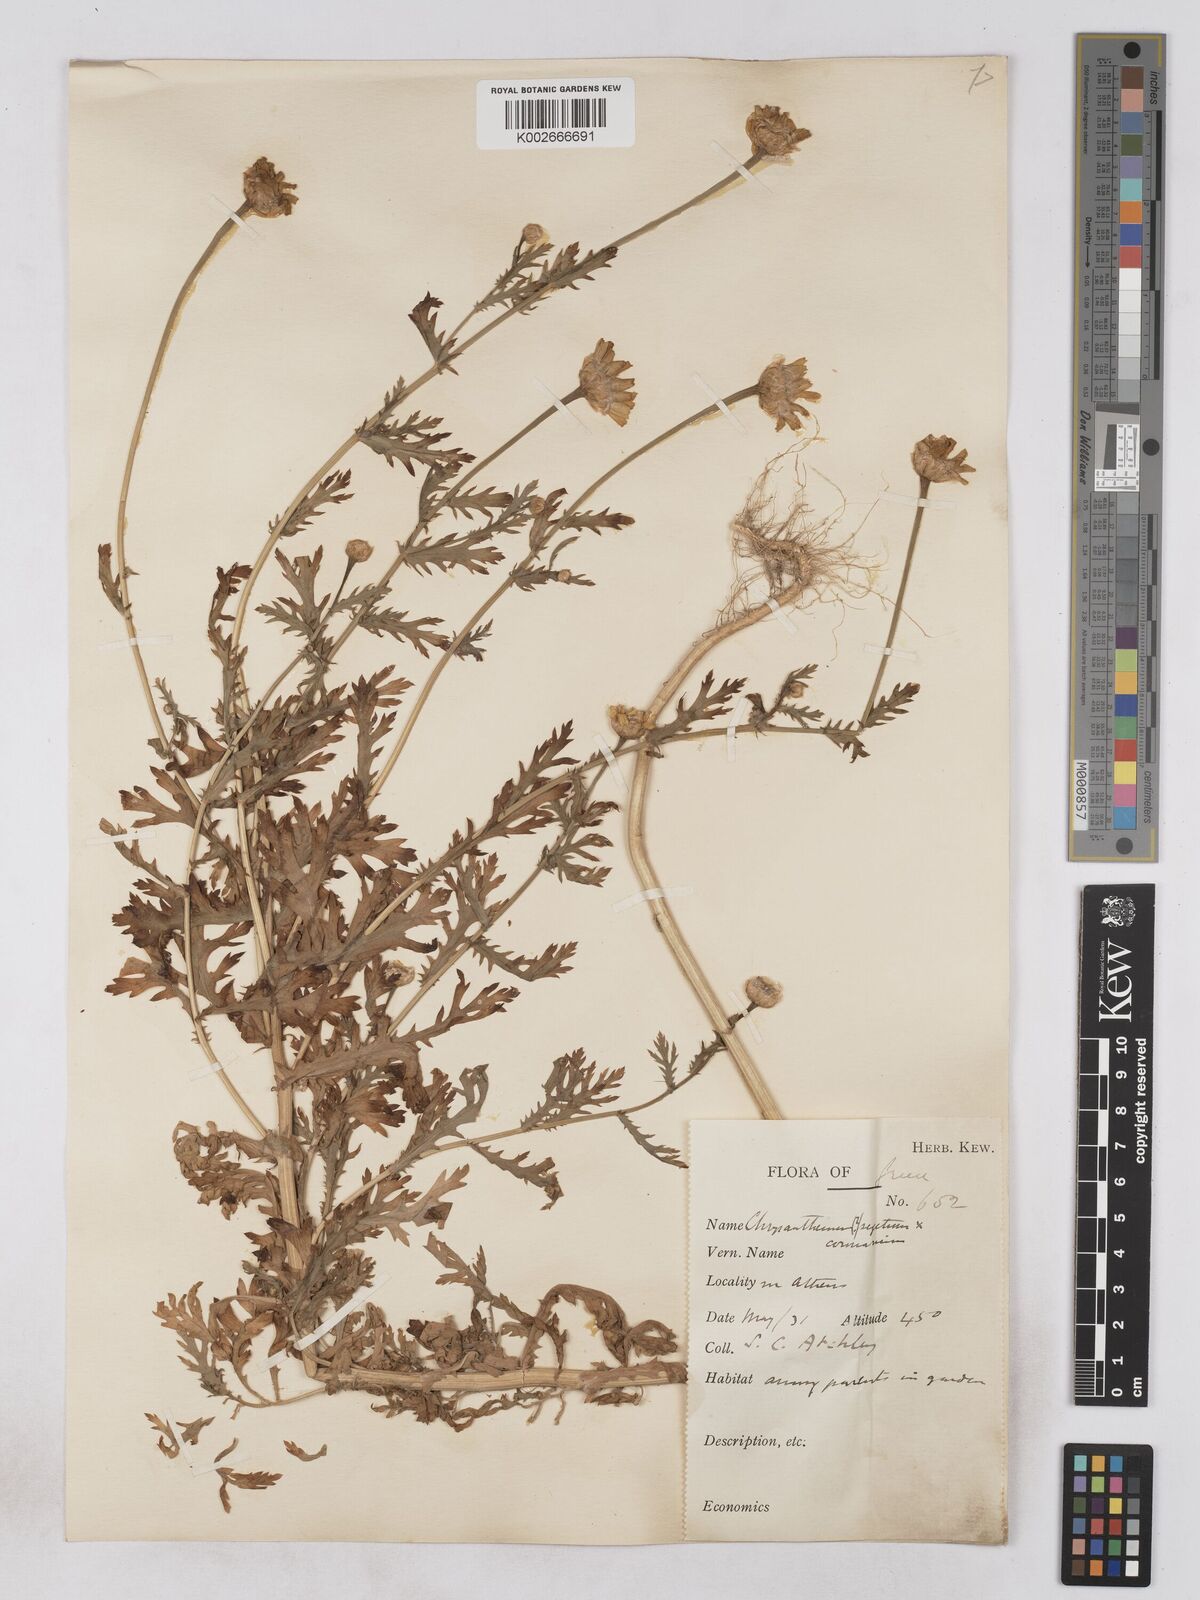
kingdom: Plantae
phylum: Tracheophyta
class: Magnoliopsida
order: Asterales
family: Asteraceae
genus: Glebionis
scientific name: Glebionis coronaria
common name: Crowndaisy
